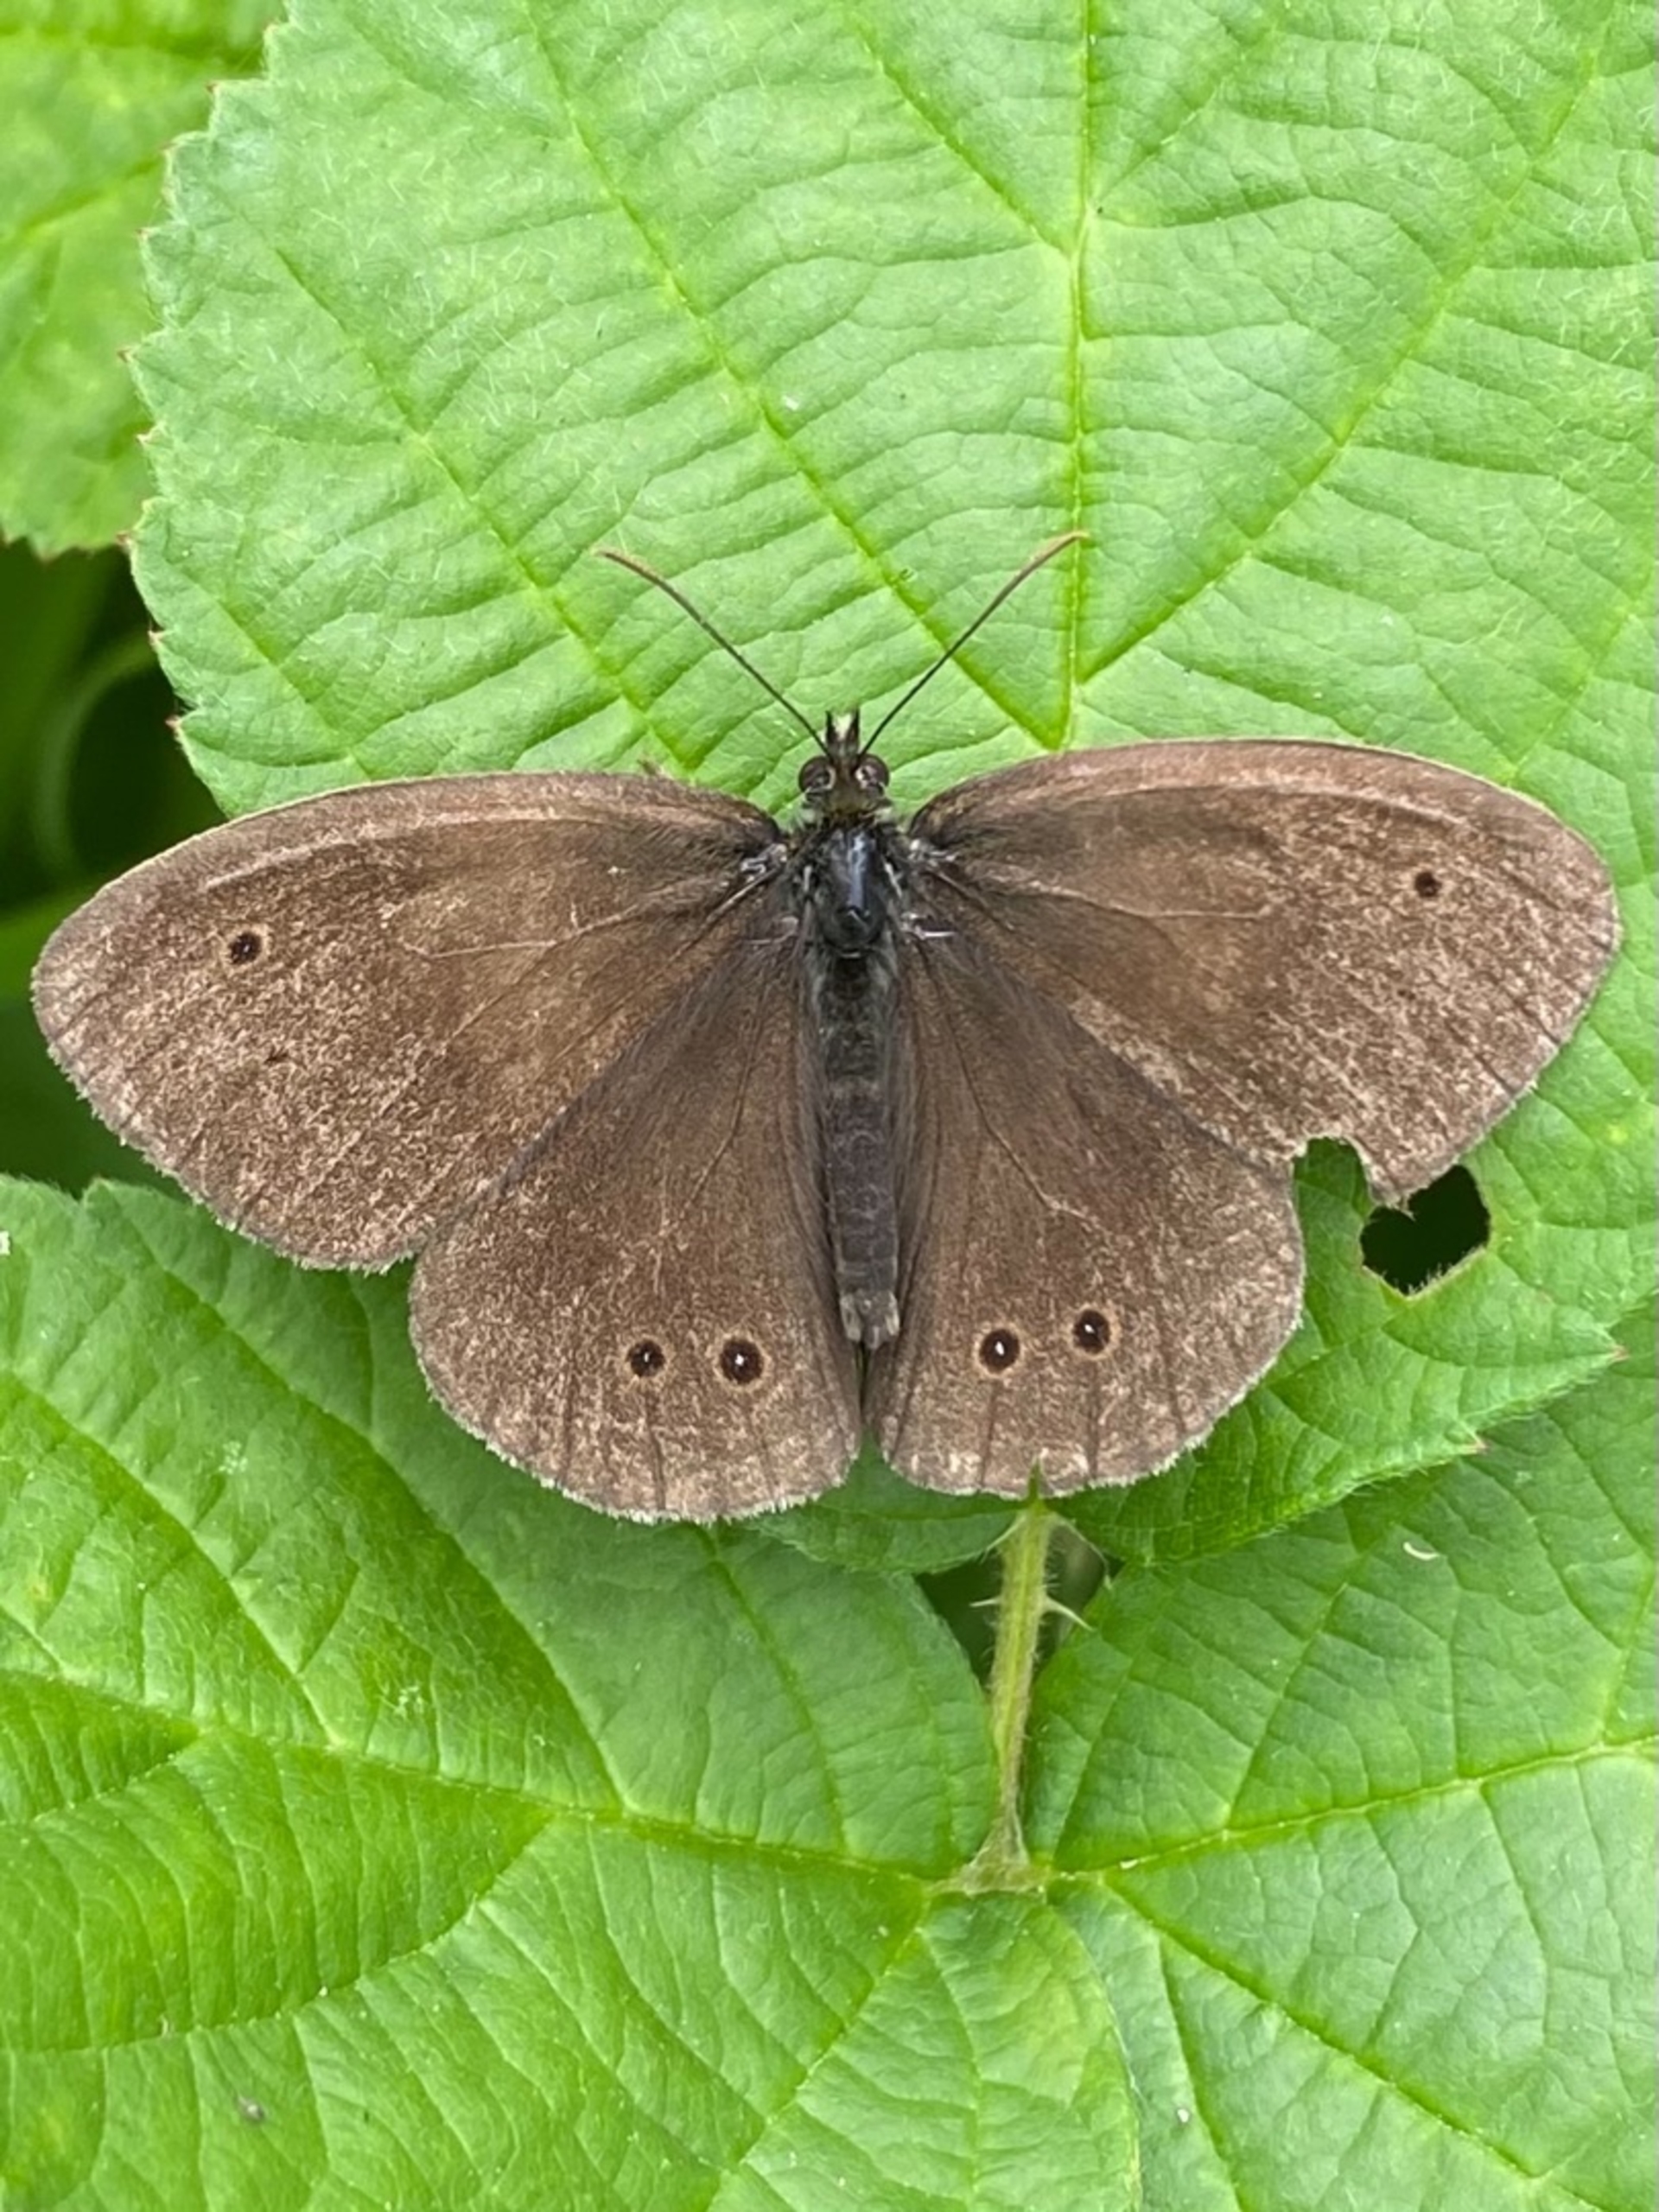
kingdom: Animalia
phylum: Arthropoda
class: Insecta
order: Lepidoptera
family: Nymphalidae
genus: Aphantopus
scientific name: Aphantopus hyperantus
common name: Engrandøje
